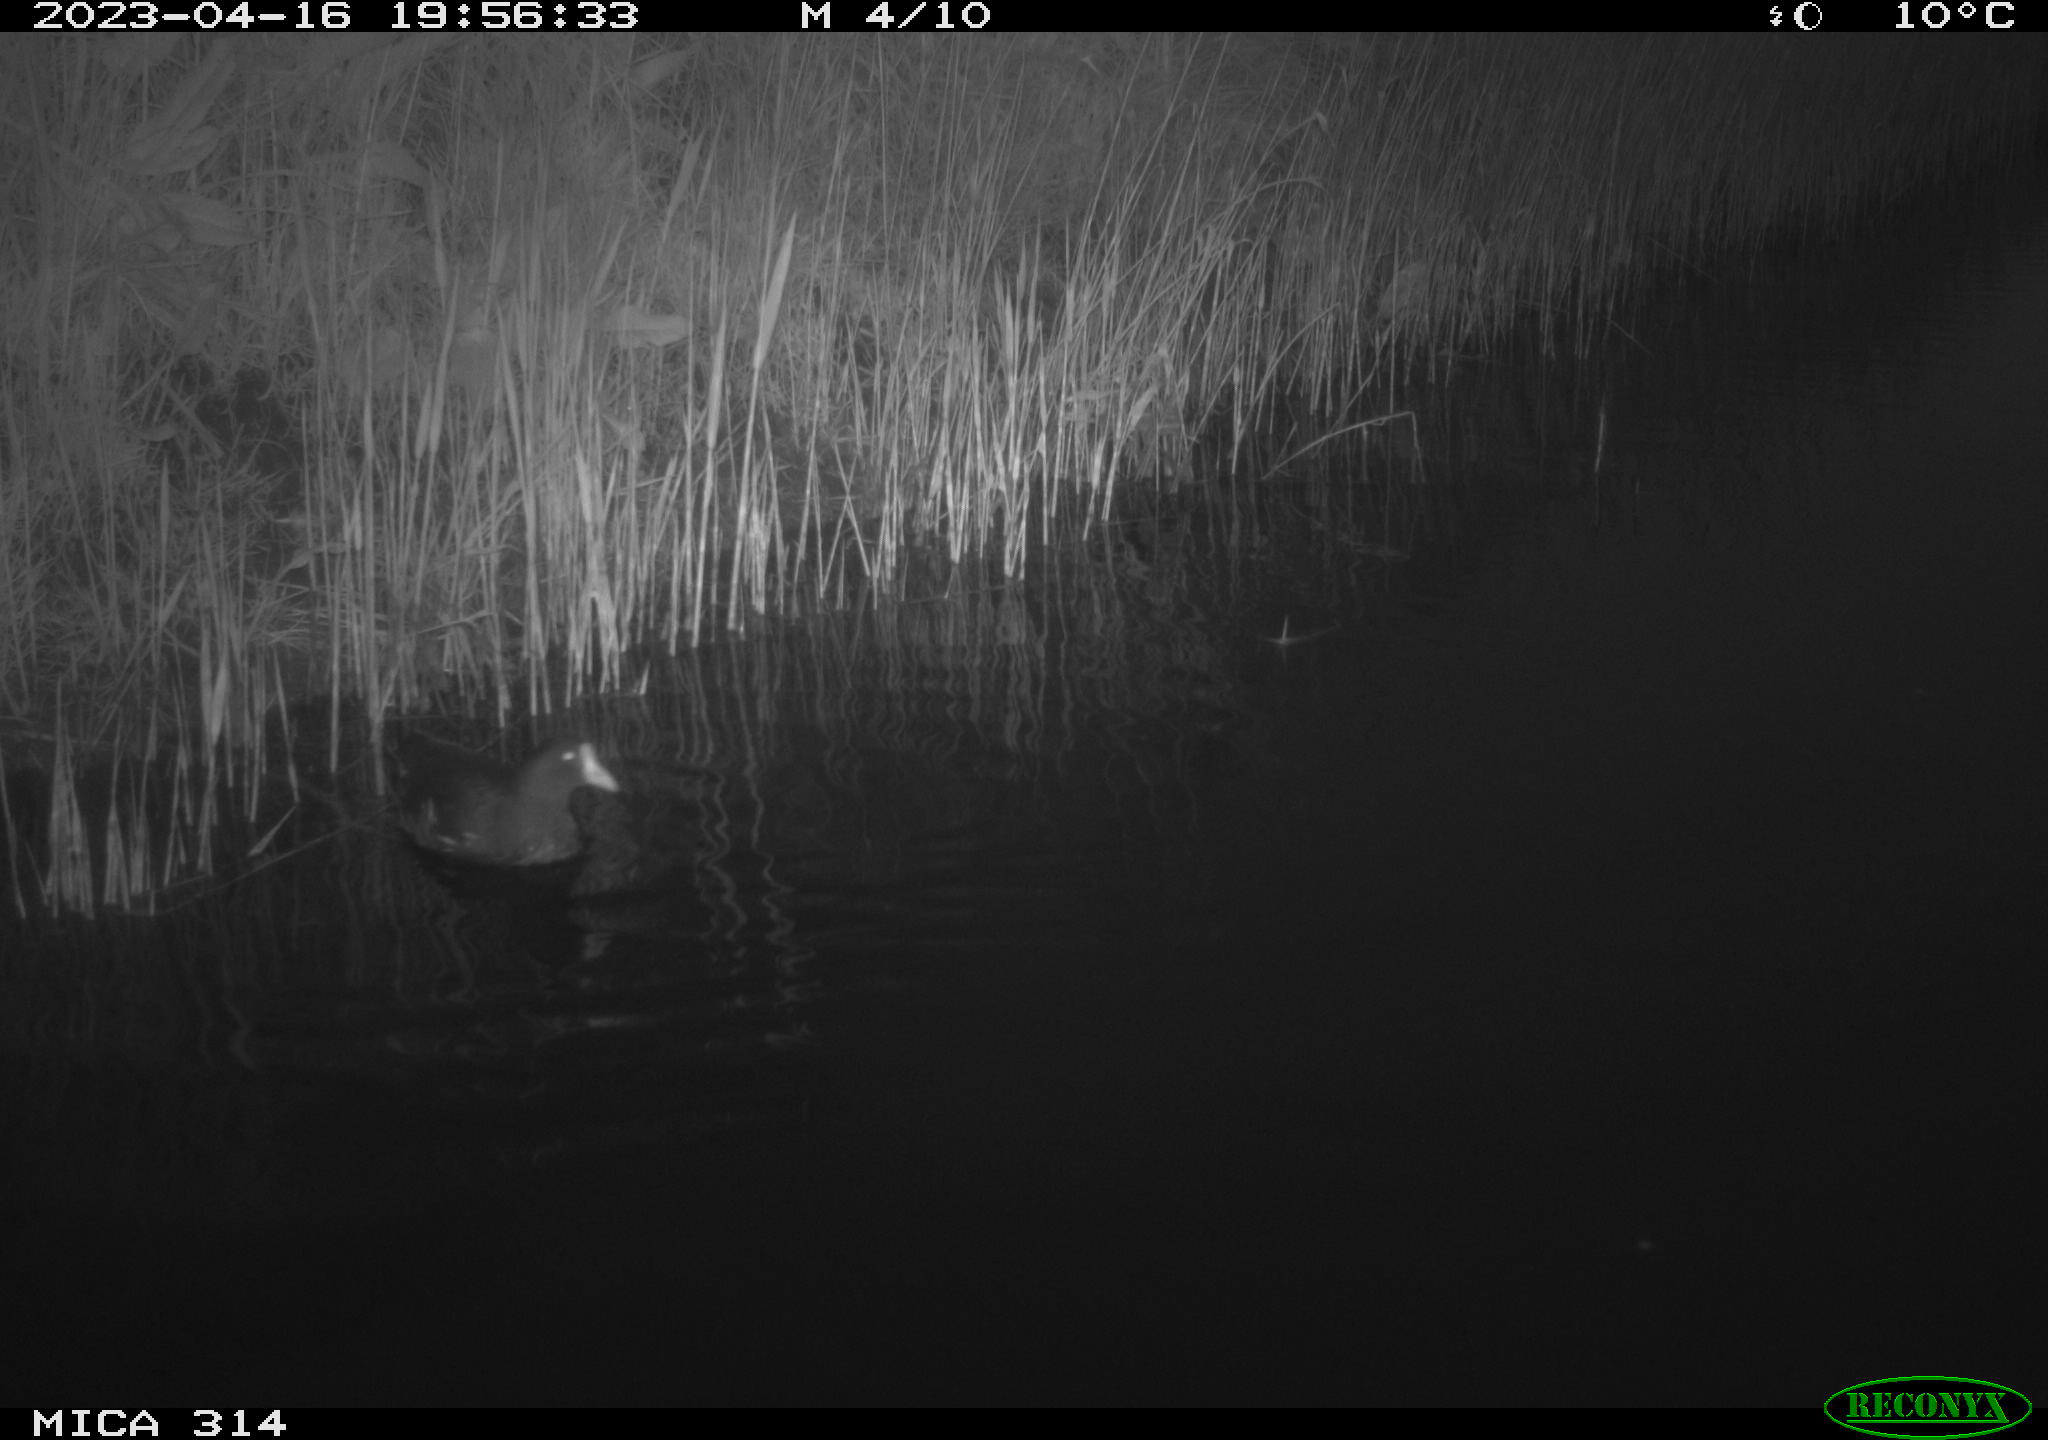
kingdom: Animalia
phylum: Chordata
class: Aves
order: Gruiformes
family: Rallidae
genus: Gallinula
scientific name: Gallinula chloropus
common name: Common moorhen
